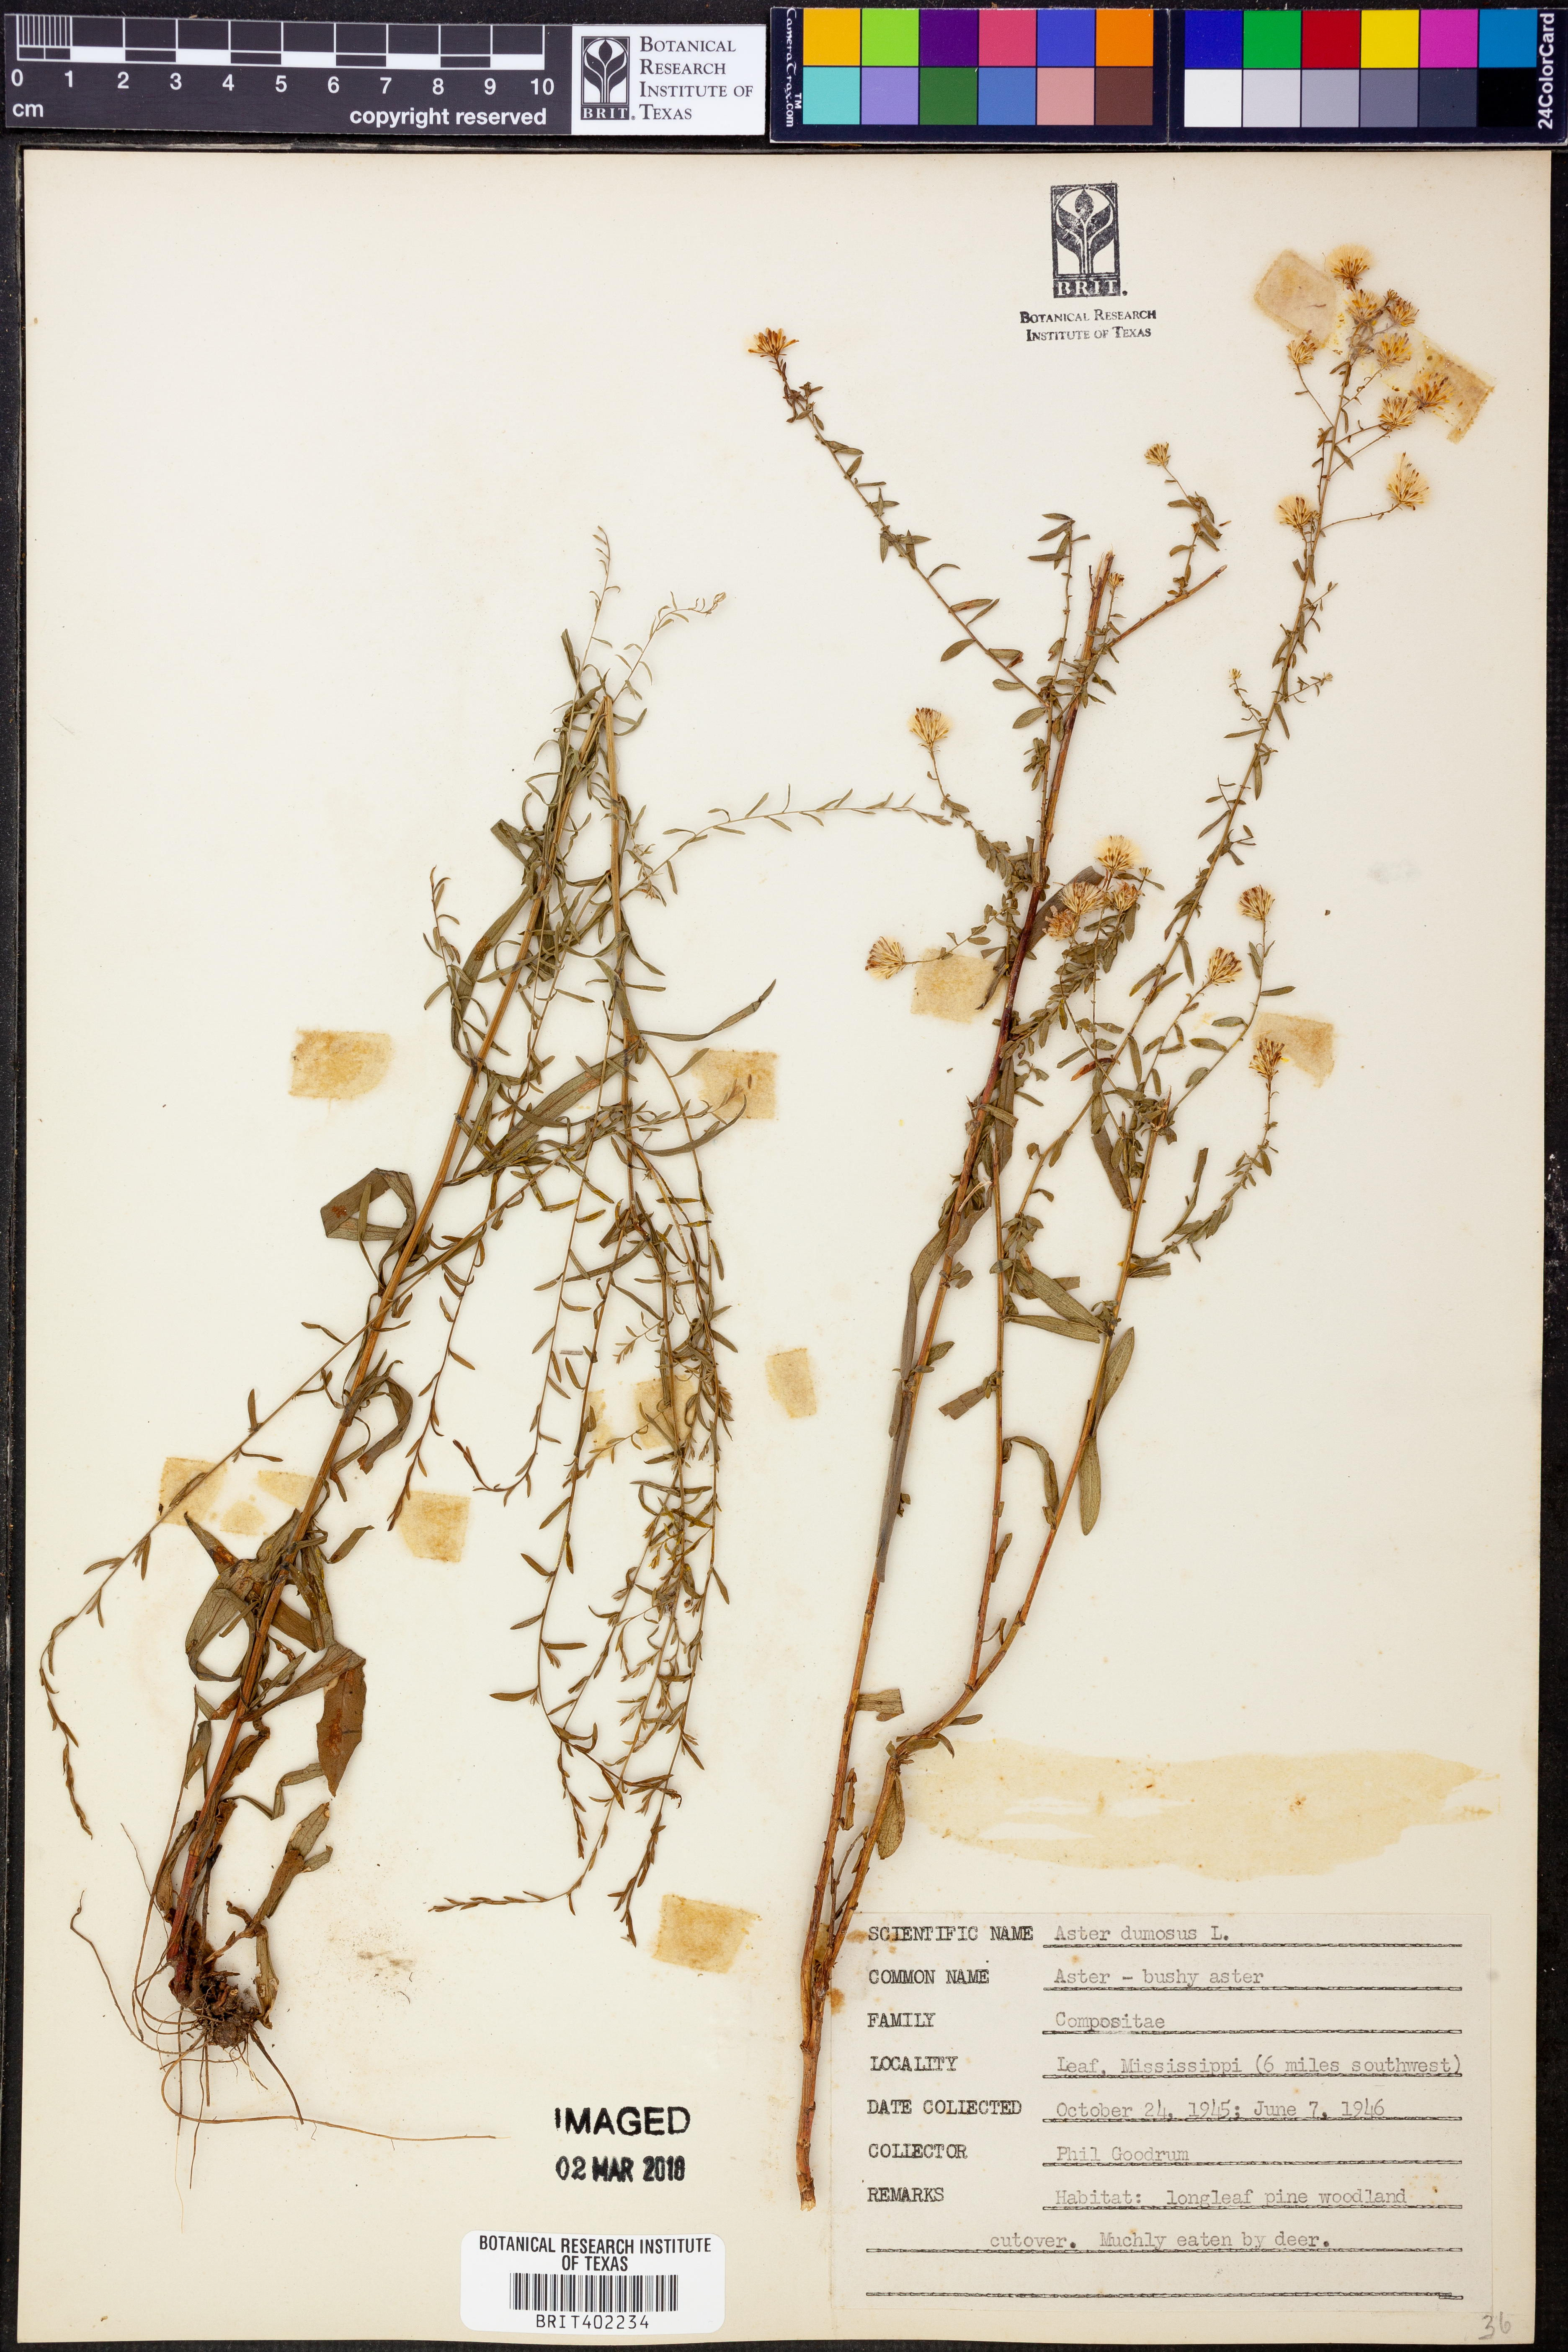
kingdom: Plantae
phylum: Tracheophyta
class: Magnoliopsida
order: Asterales
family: Asteraceae
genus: Symphyotrichum
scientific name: Symphyotrichum dumosum
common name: Bushy aster
